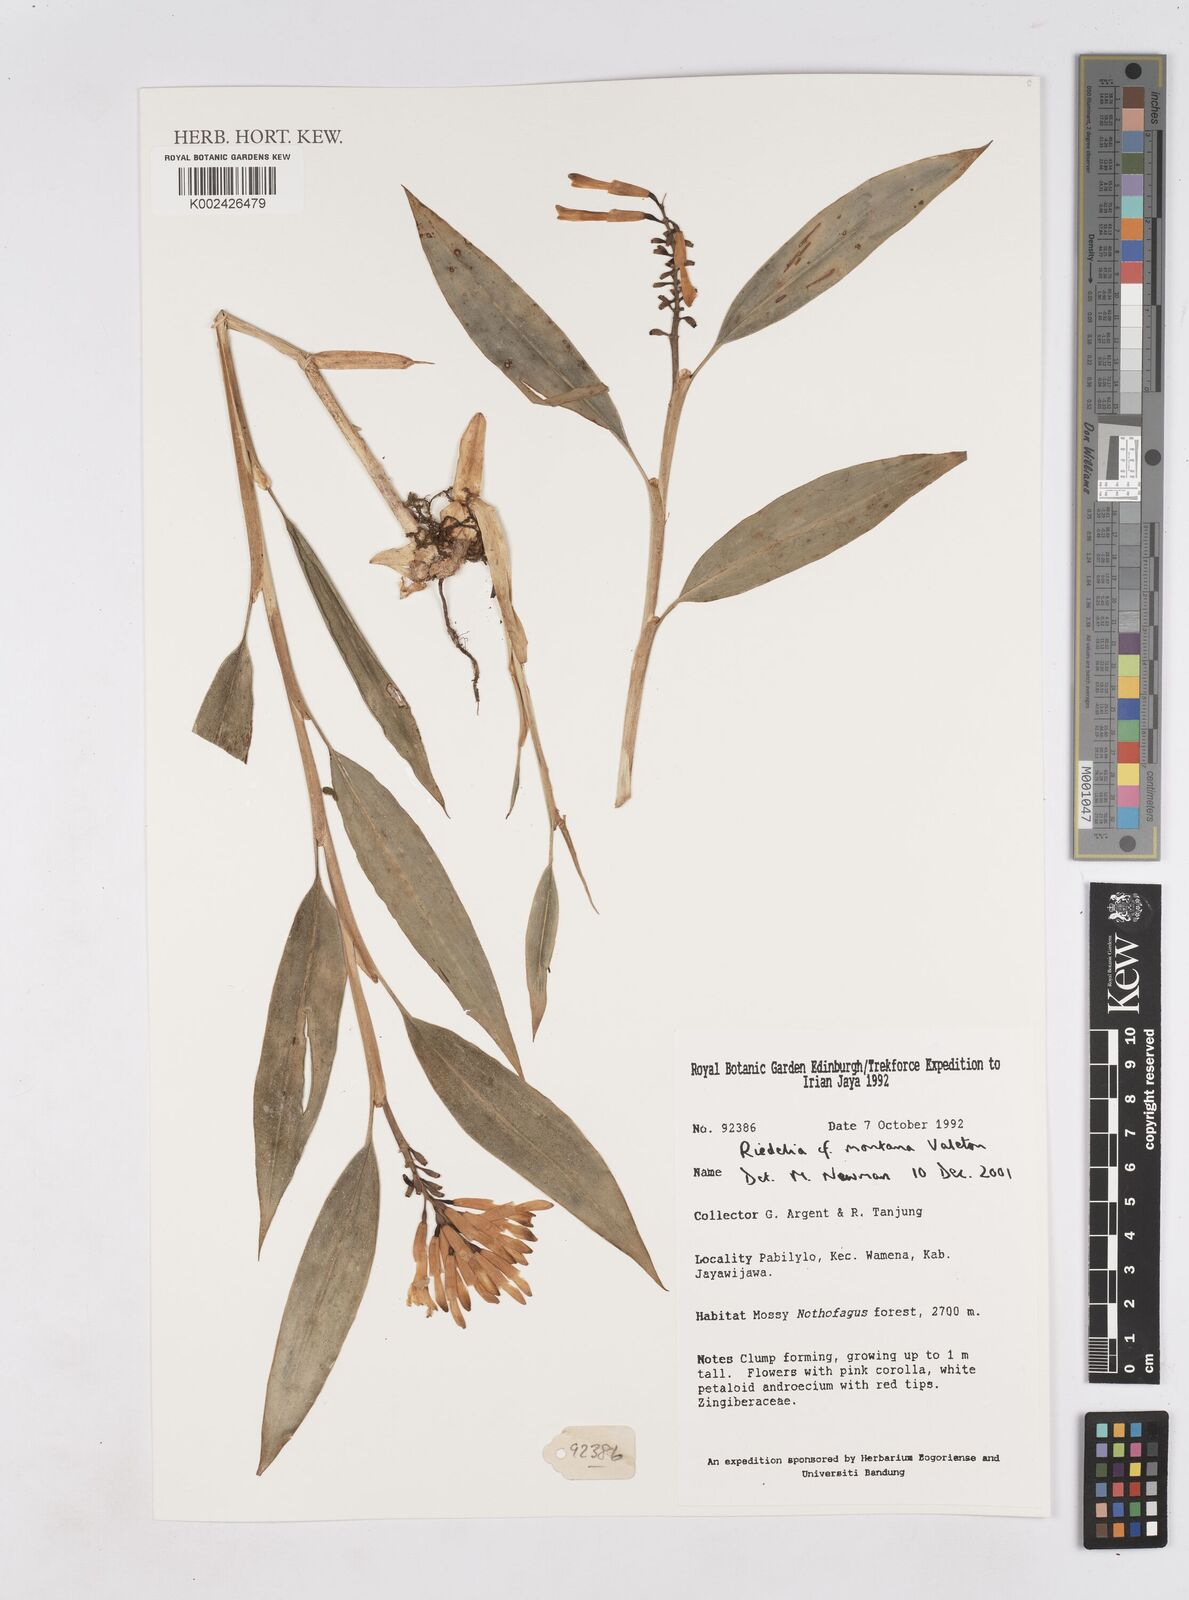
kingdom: Plantae
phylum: Tracheophyta
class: Liliopsida
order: Zingiberales
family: Zingiberaceae
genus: Riedelia
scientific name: Riedelia montana
